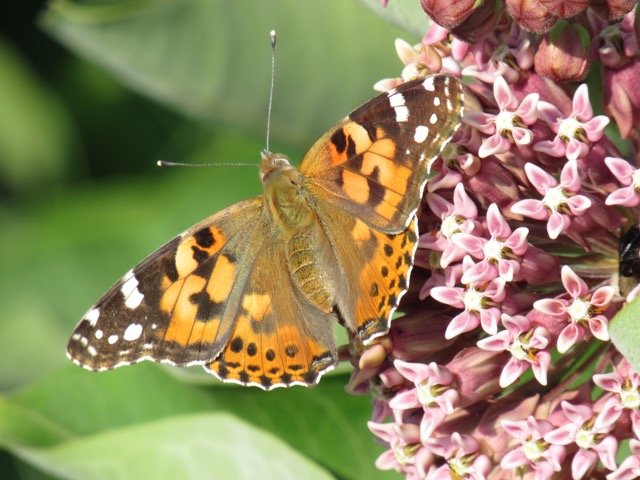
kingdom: Animalia
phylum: Arthropoda
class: Insecta
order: Lepidoptera
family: Nymphalidae
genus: Vanessa
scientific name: Vanessa cardui
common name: Painted Lady
